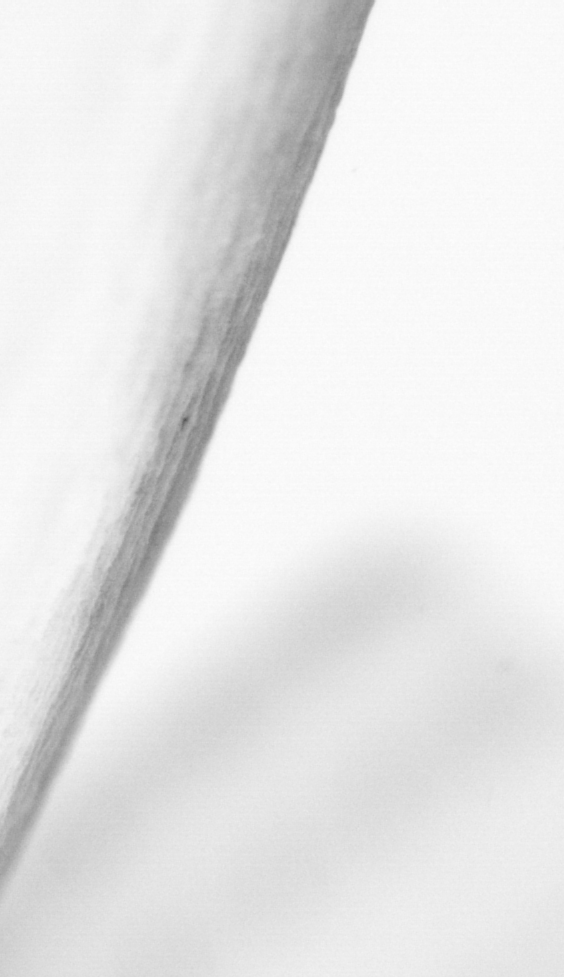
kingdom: Animalia
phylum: Chordata
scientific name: Chordata
